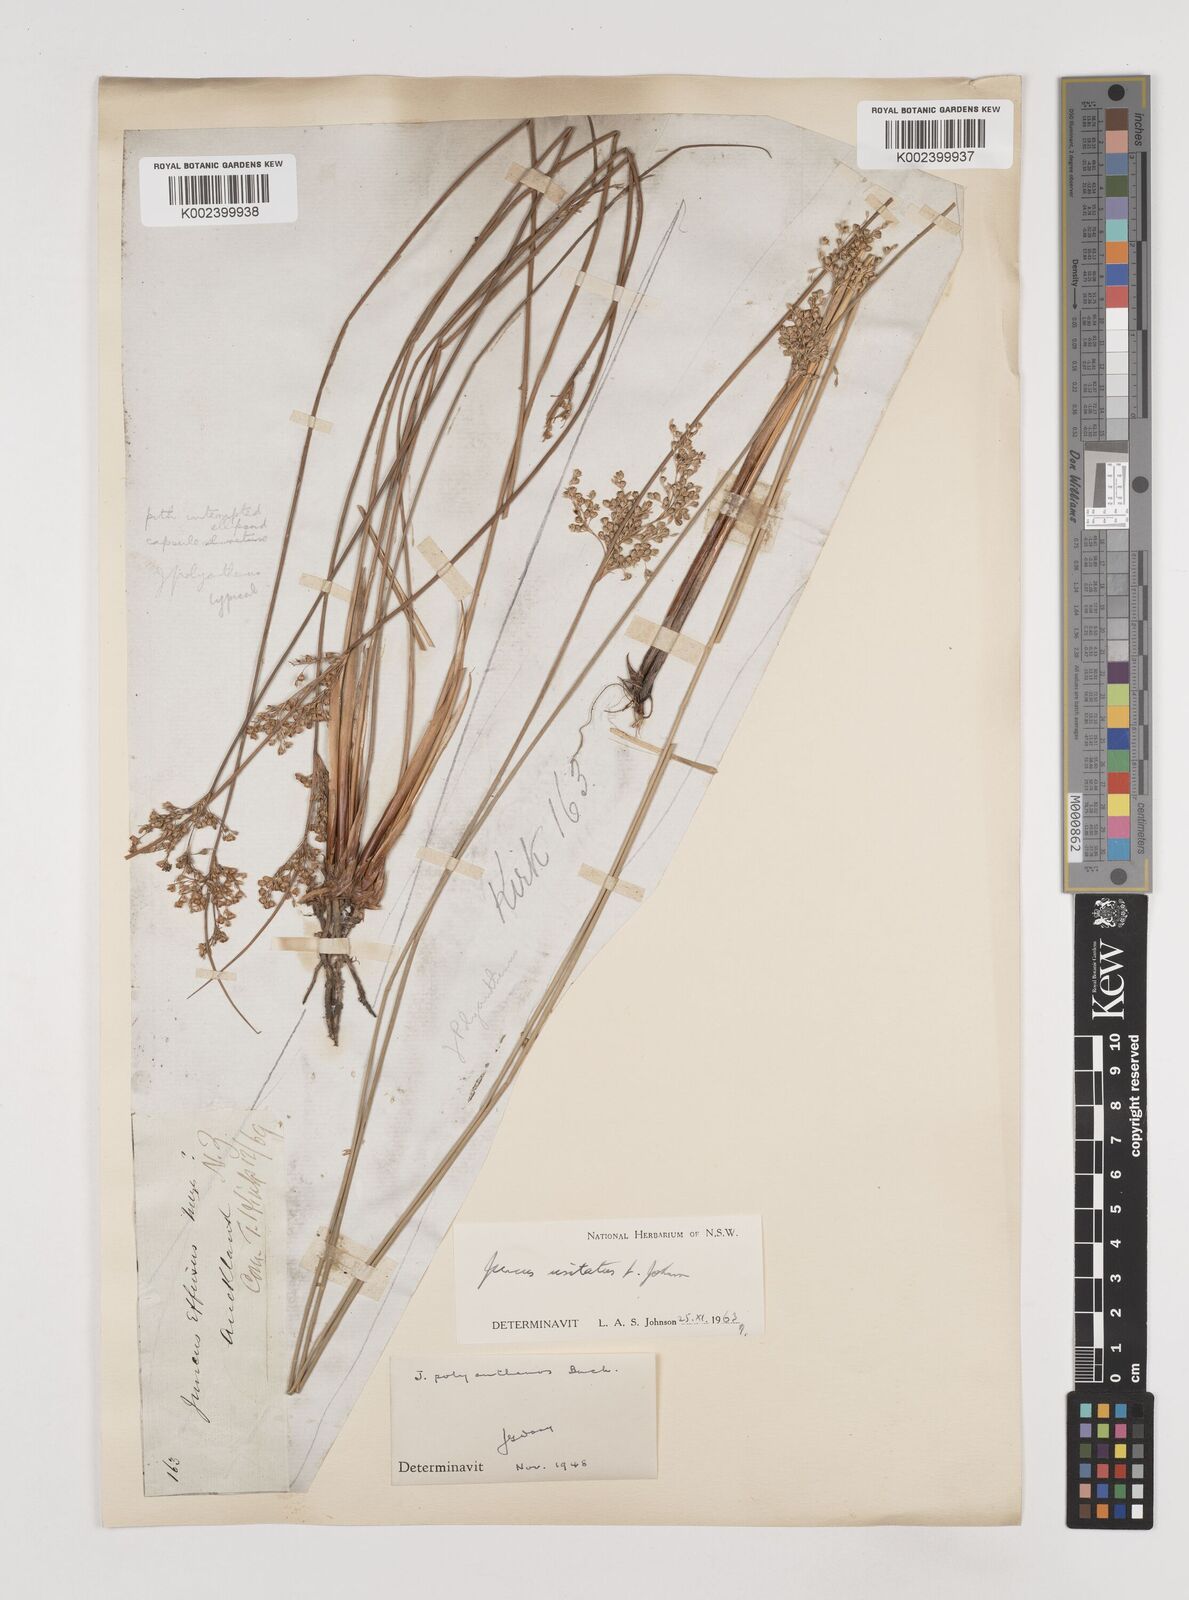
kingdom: Plantae
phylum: Tracheophyta
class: Liliopsida
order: Poales
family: Juncaceae
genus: Juncus
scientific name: Juncus usitatus
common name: Rush
